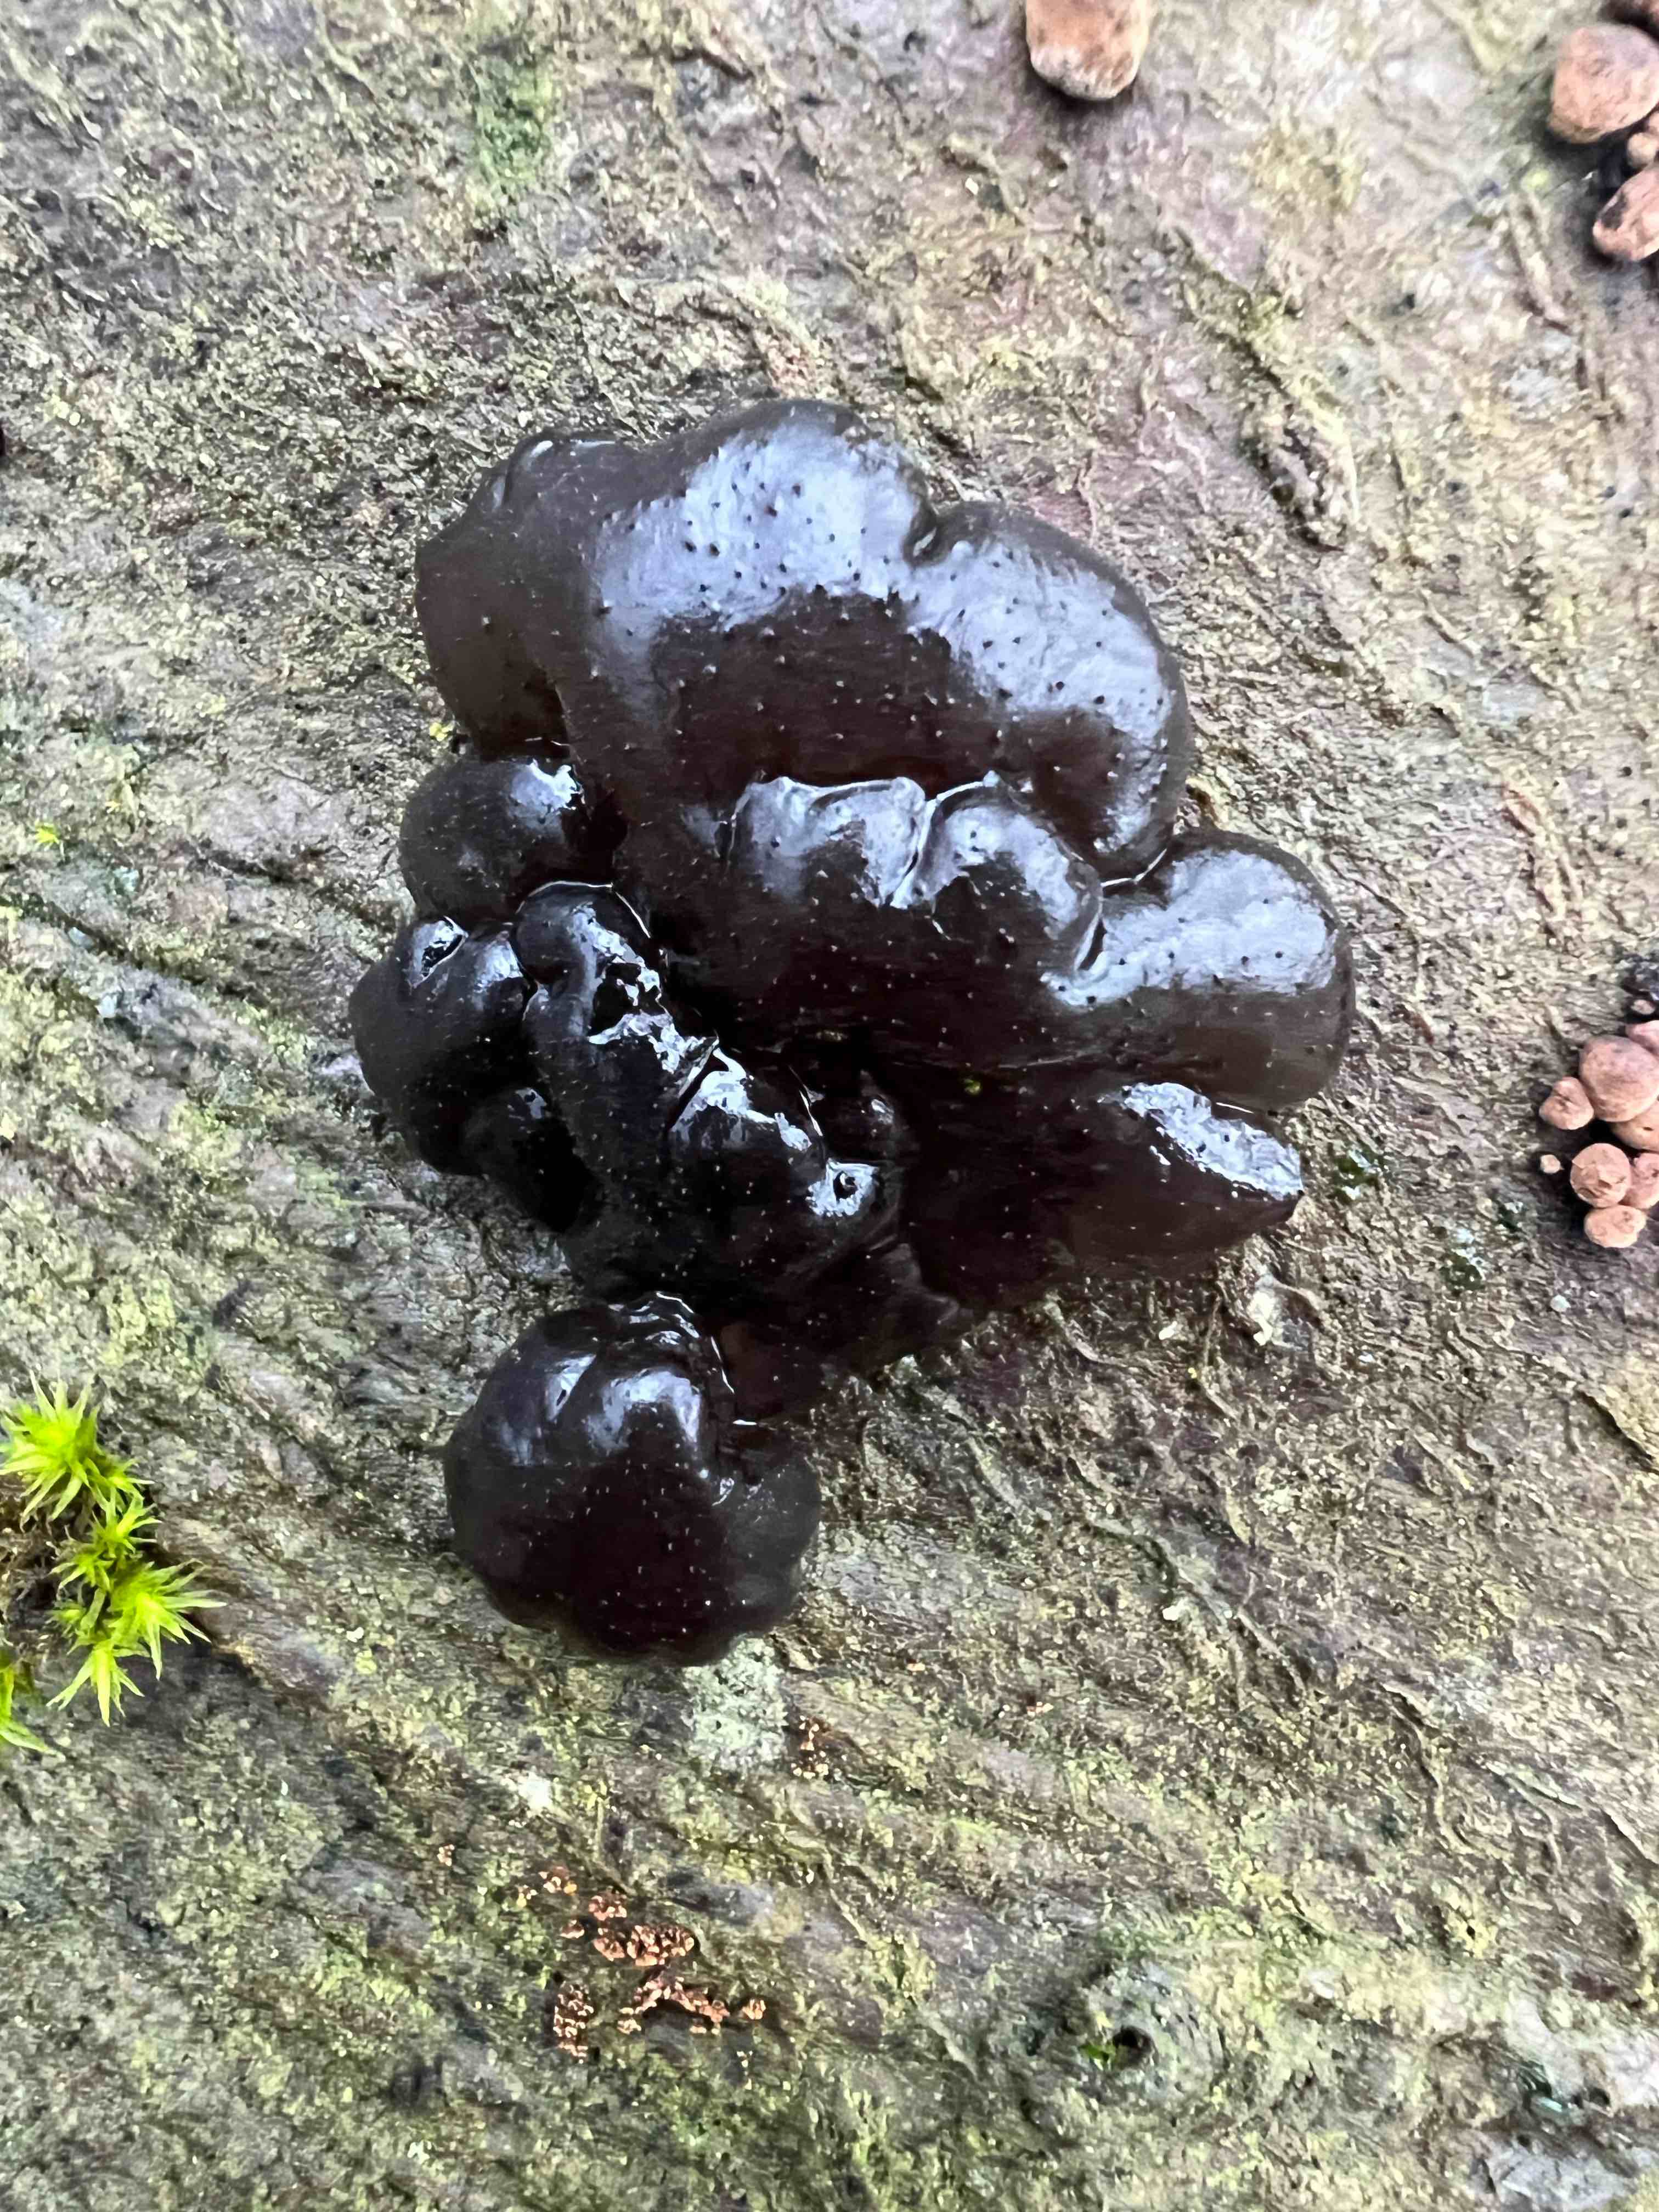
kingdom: Fungi
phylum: Basidiomycota
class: Agaricomycetes
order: Auriculariales
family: Auriculariaceae
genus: Exidia
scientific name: Exidia nigricans
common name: almindelig bævretop
